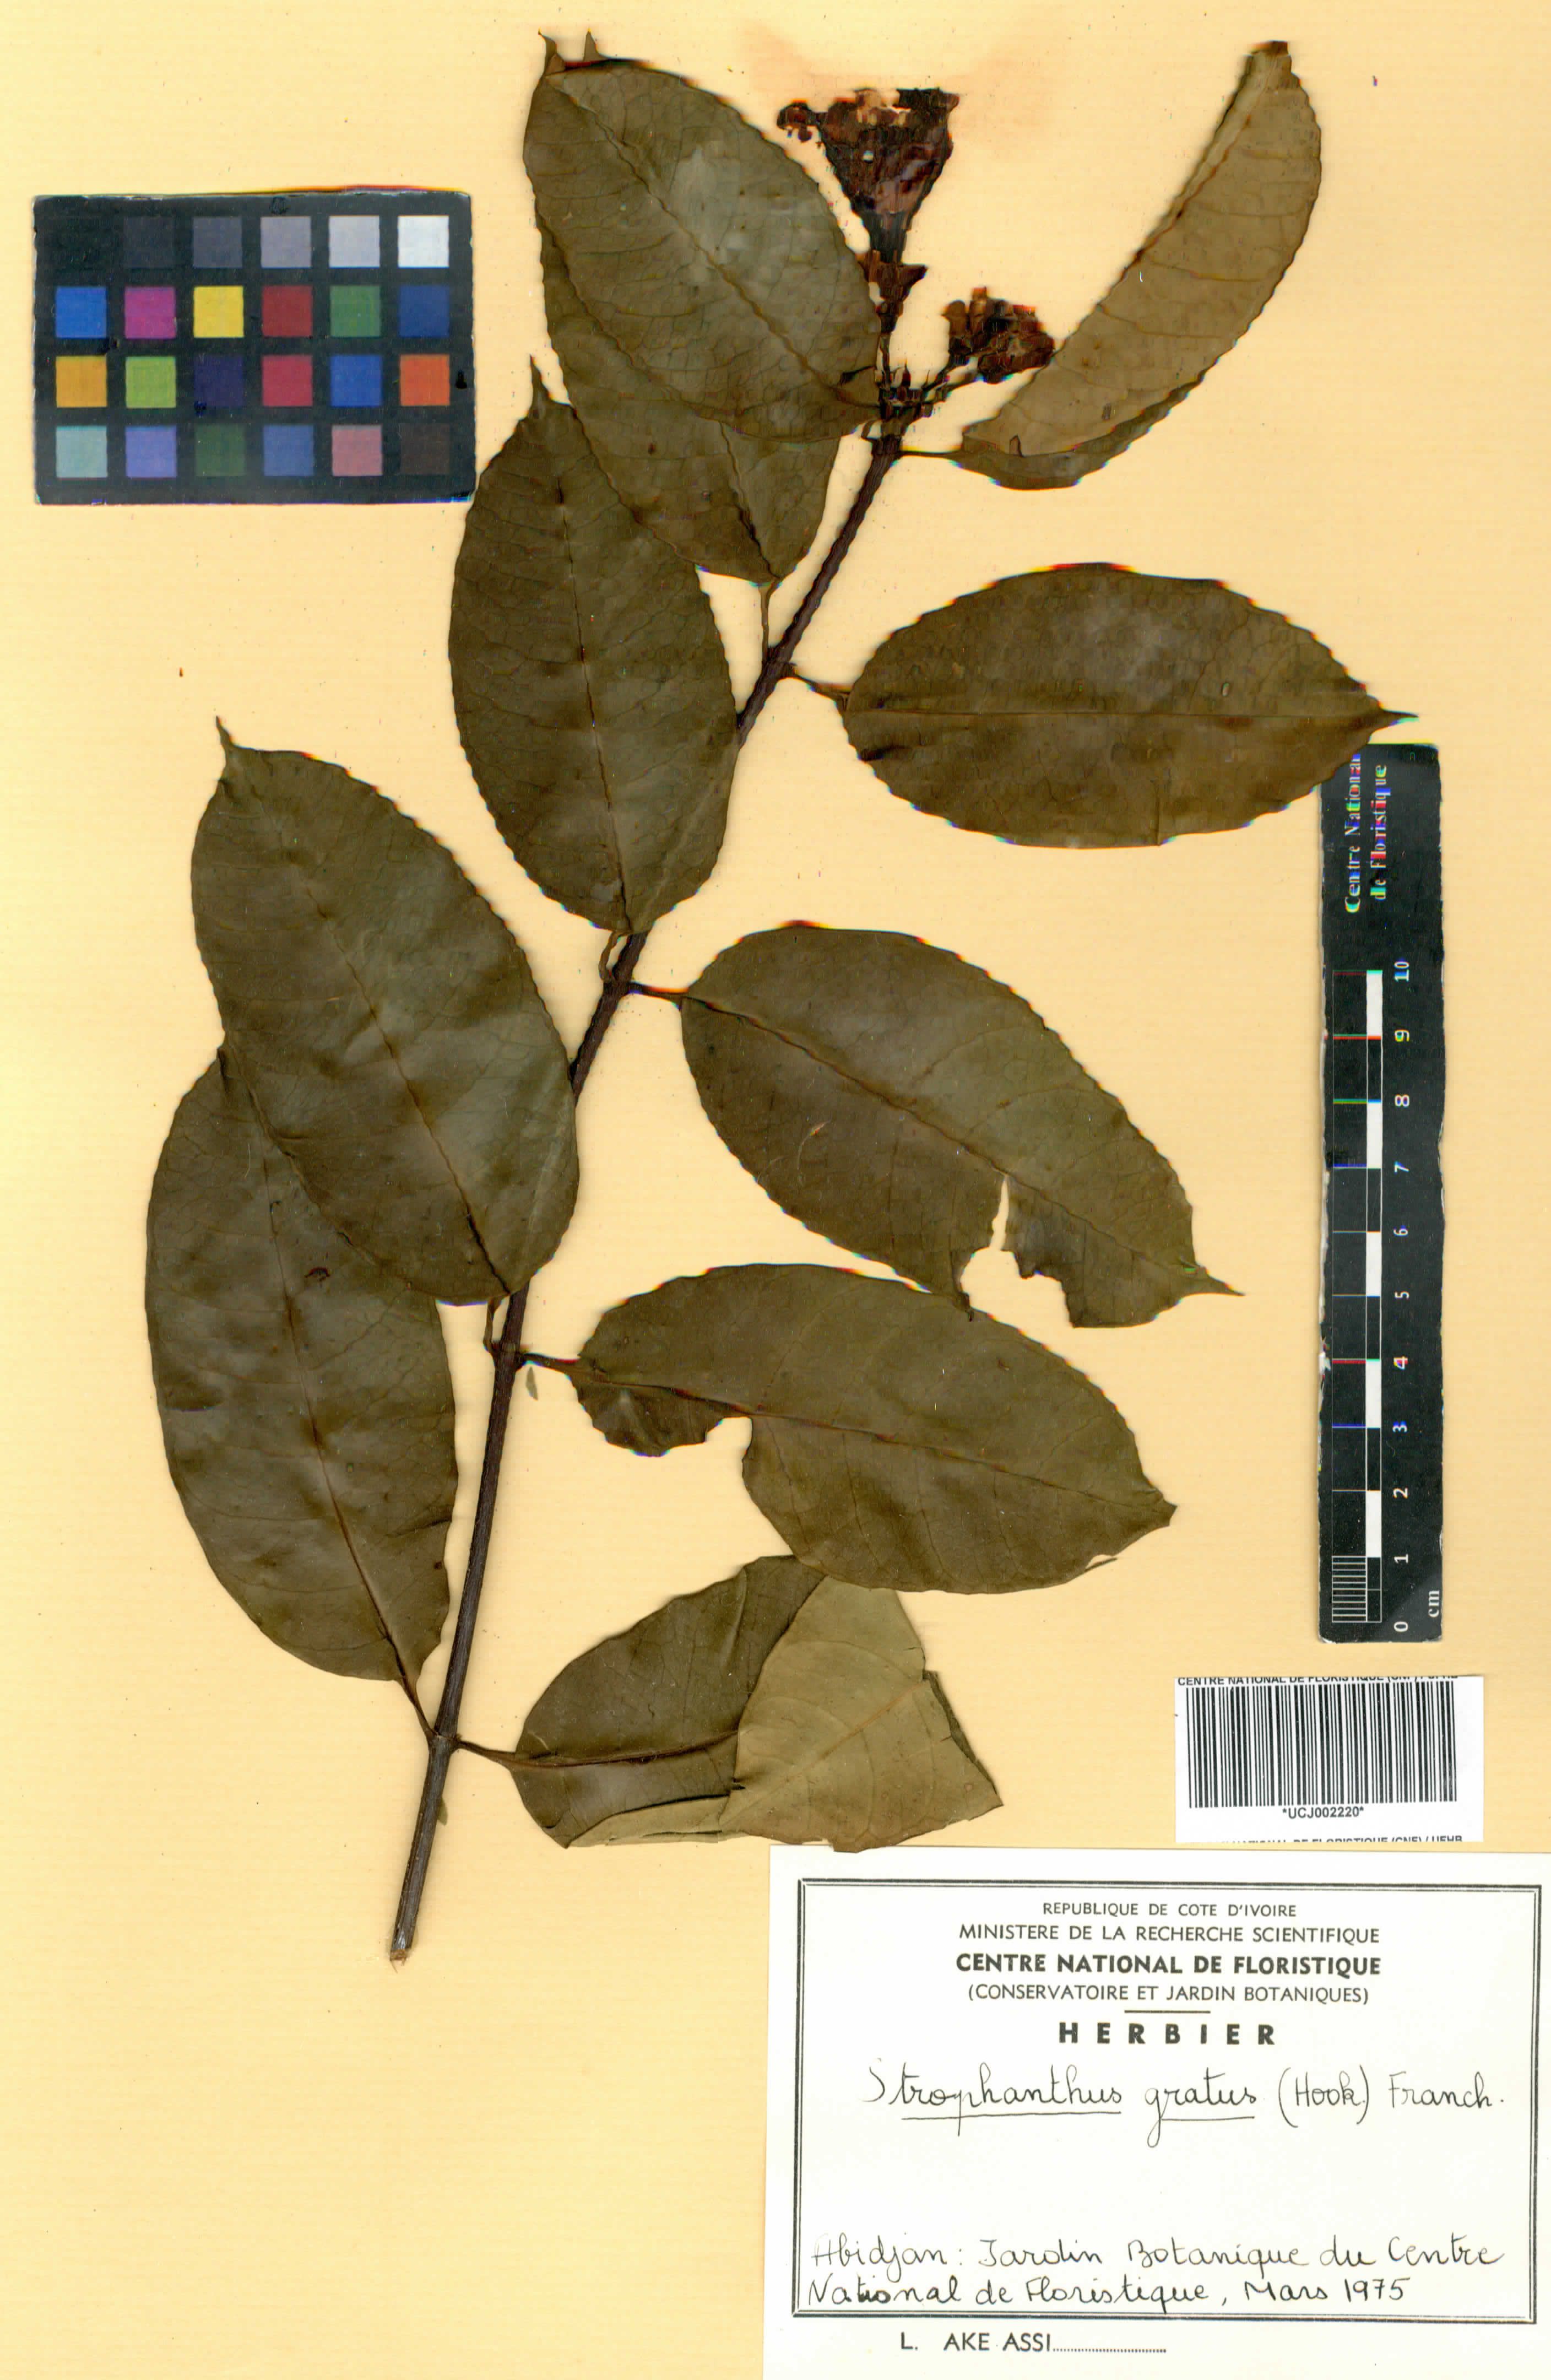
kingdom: Plantae
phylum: Tracheophyta
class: Magnoliopsida
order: Gentianales
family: Apocynaceae
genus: Strophanthus
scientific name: Strophanthus gratus
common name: Climbing-oleander
